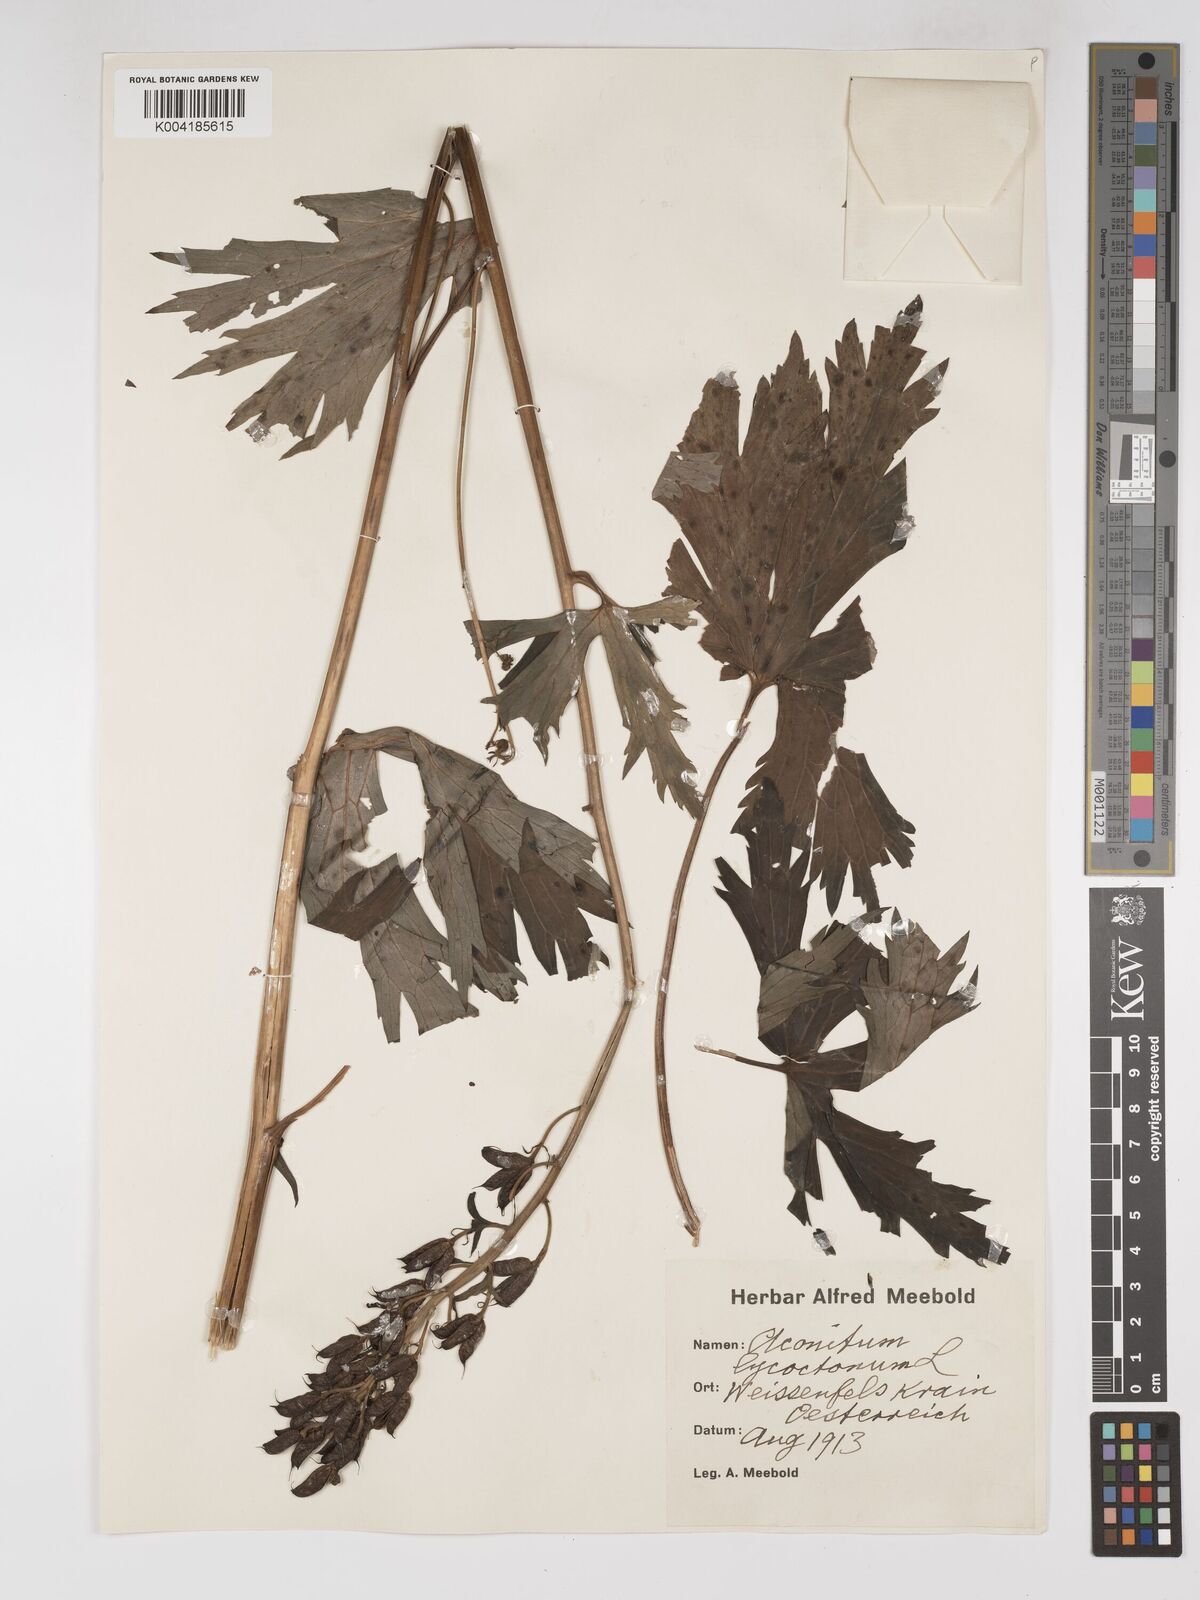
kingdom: Plantae
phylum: Tracheophyta
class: Magnoliopsida
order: Ranunculales
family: Ranunculaceae
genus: Aconitum
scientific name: Aconitum lycoctonum
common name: Wolf's-bane
